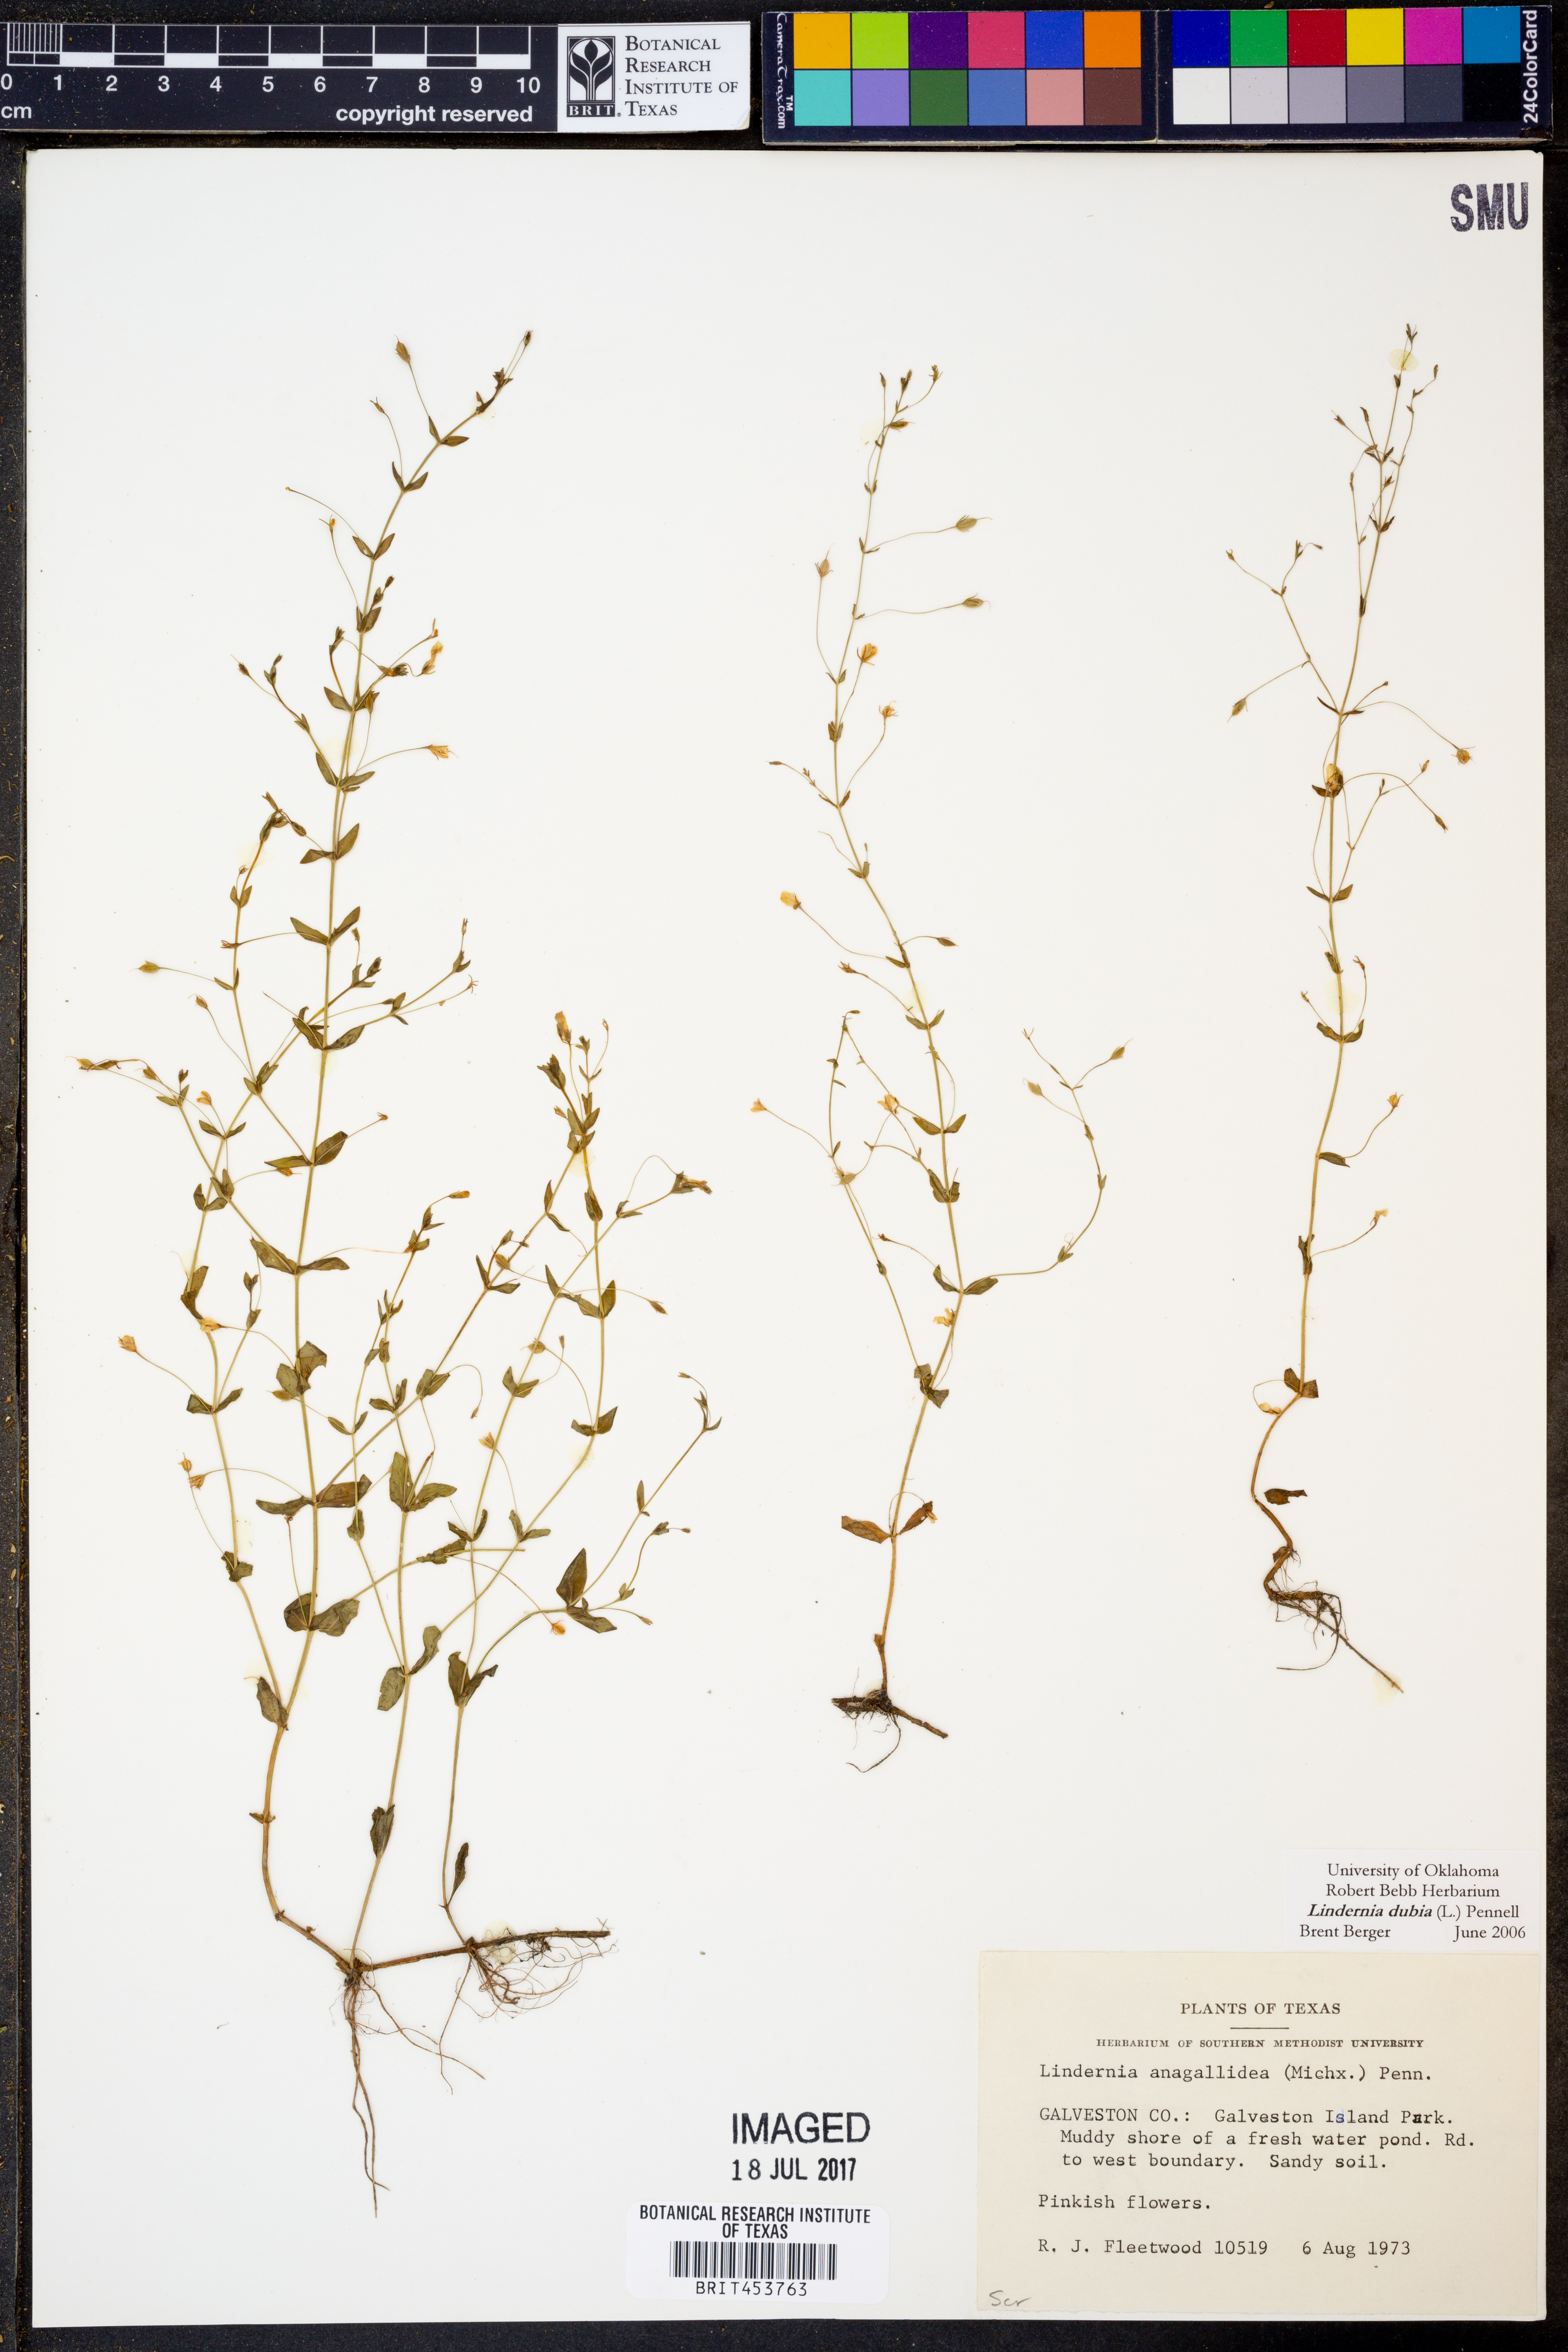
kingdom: Plantae
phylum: Tracheophyta
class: Magnoliopsida
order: Lamiales
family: Linderniaceae
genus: Lindernia
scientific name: Lindernia dubia
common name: Annual false pimpernel
